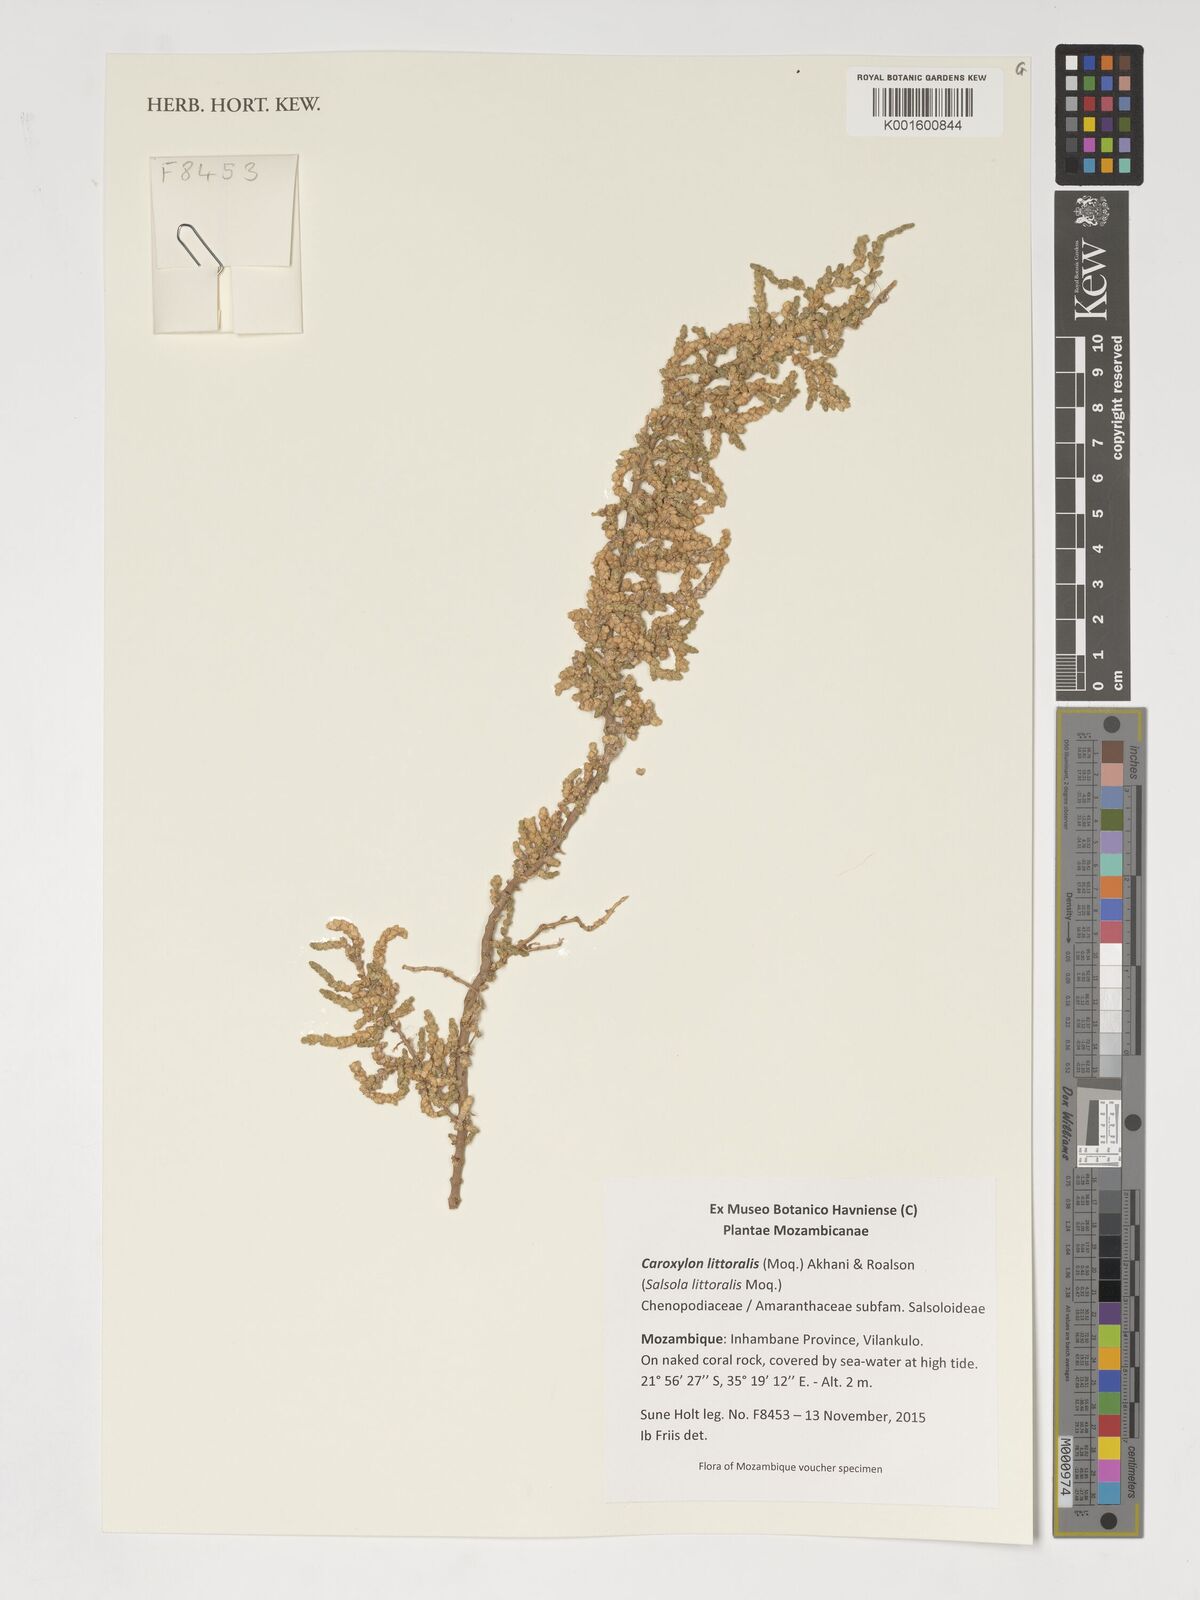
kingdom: Plantae
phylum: Tracheophyta
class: Magnoliopsida
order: Caryophyllales
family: Amaranthaceae
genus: Caroxylon
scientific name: Caroxylon littoralis
